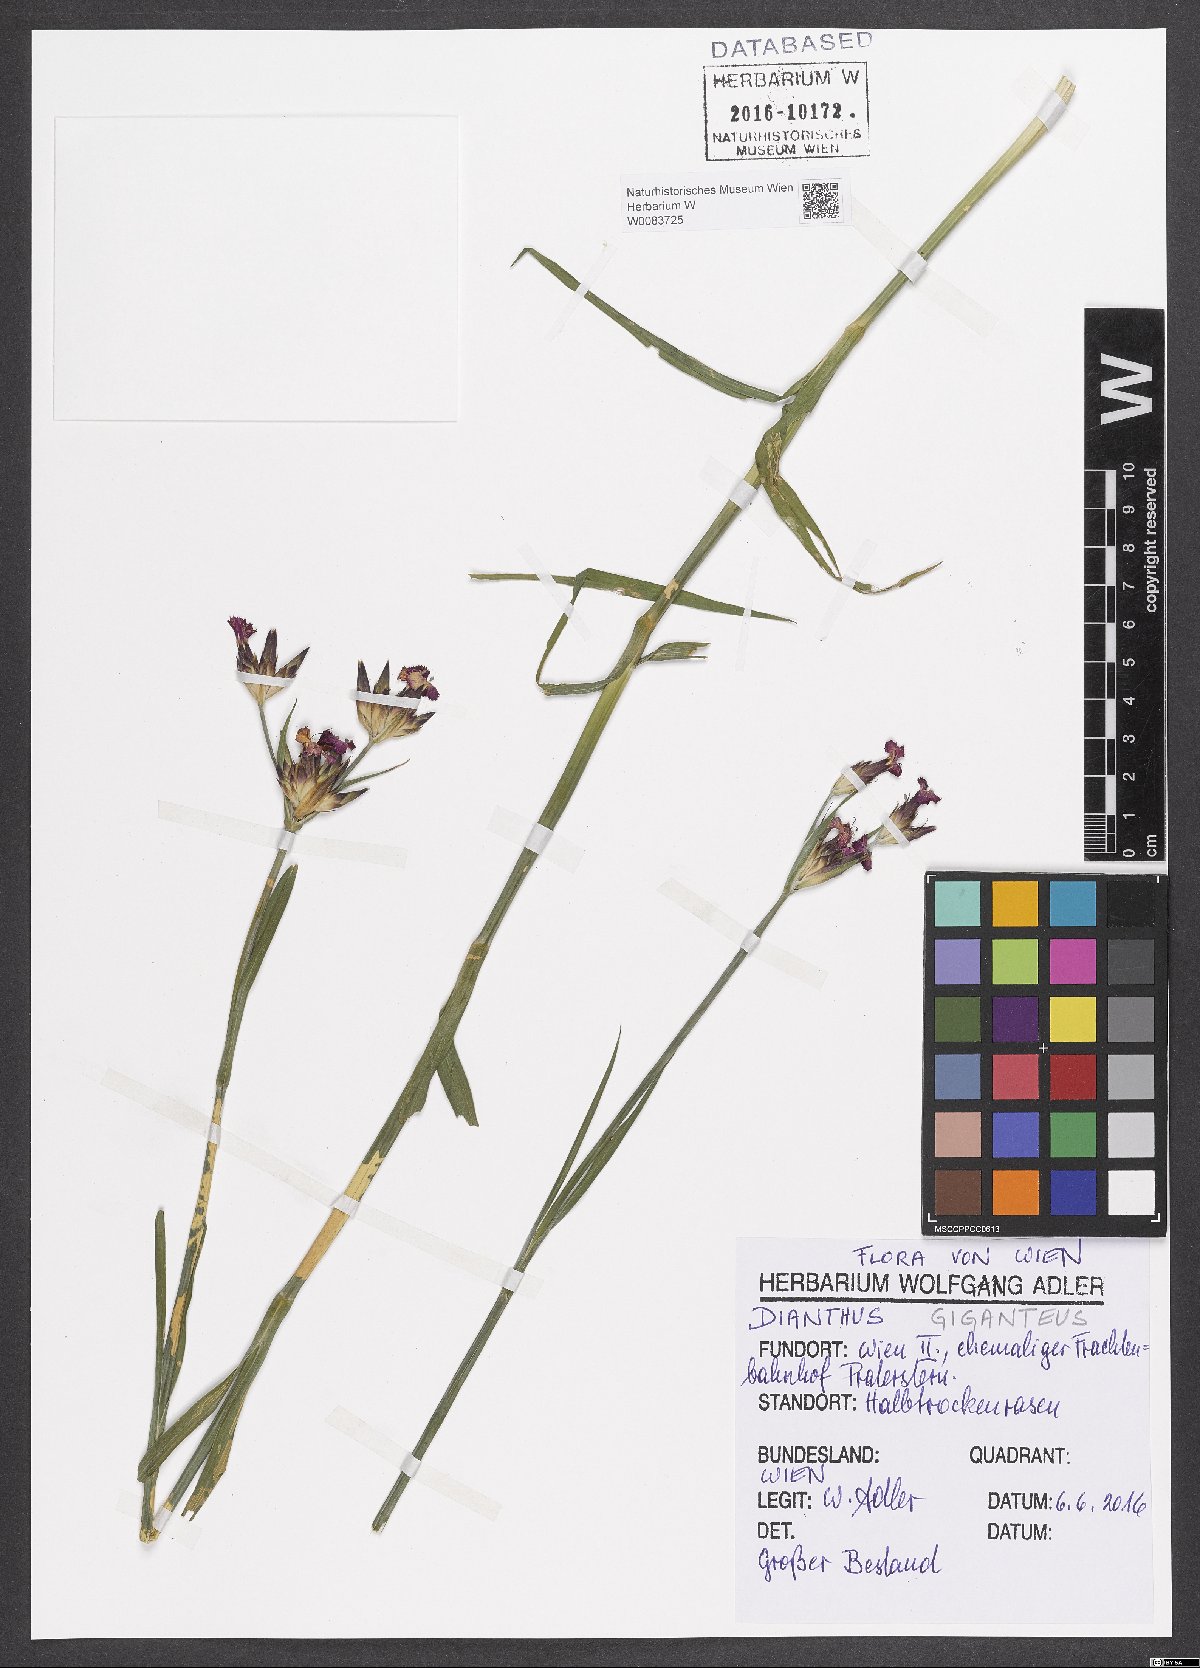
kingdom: Plantae
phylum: Tracheophyta
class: Magnoliopsida
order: Caryophyllales
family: Caryophyllaceae
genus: Dianthus
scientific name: Dianthus giganteus
